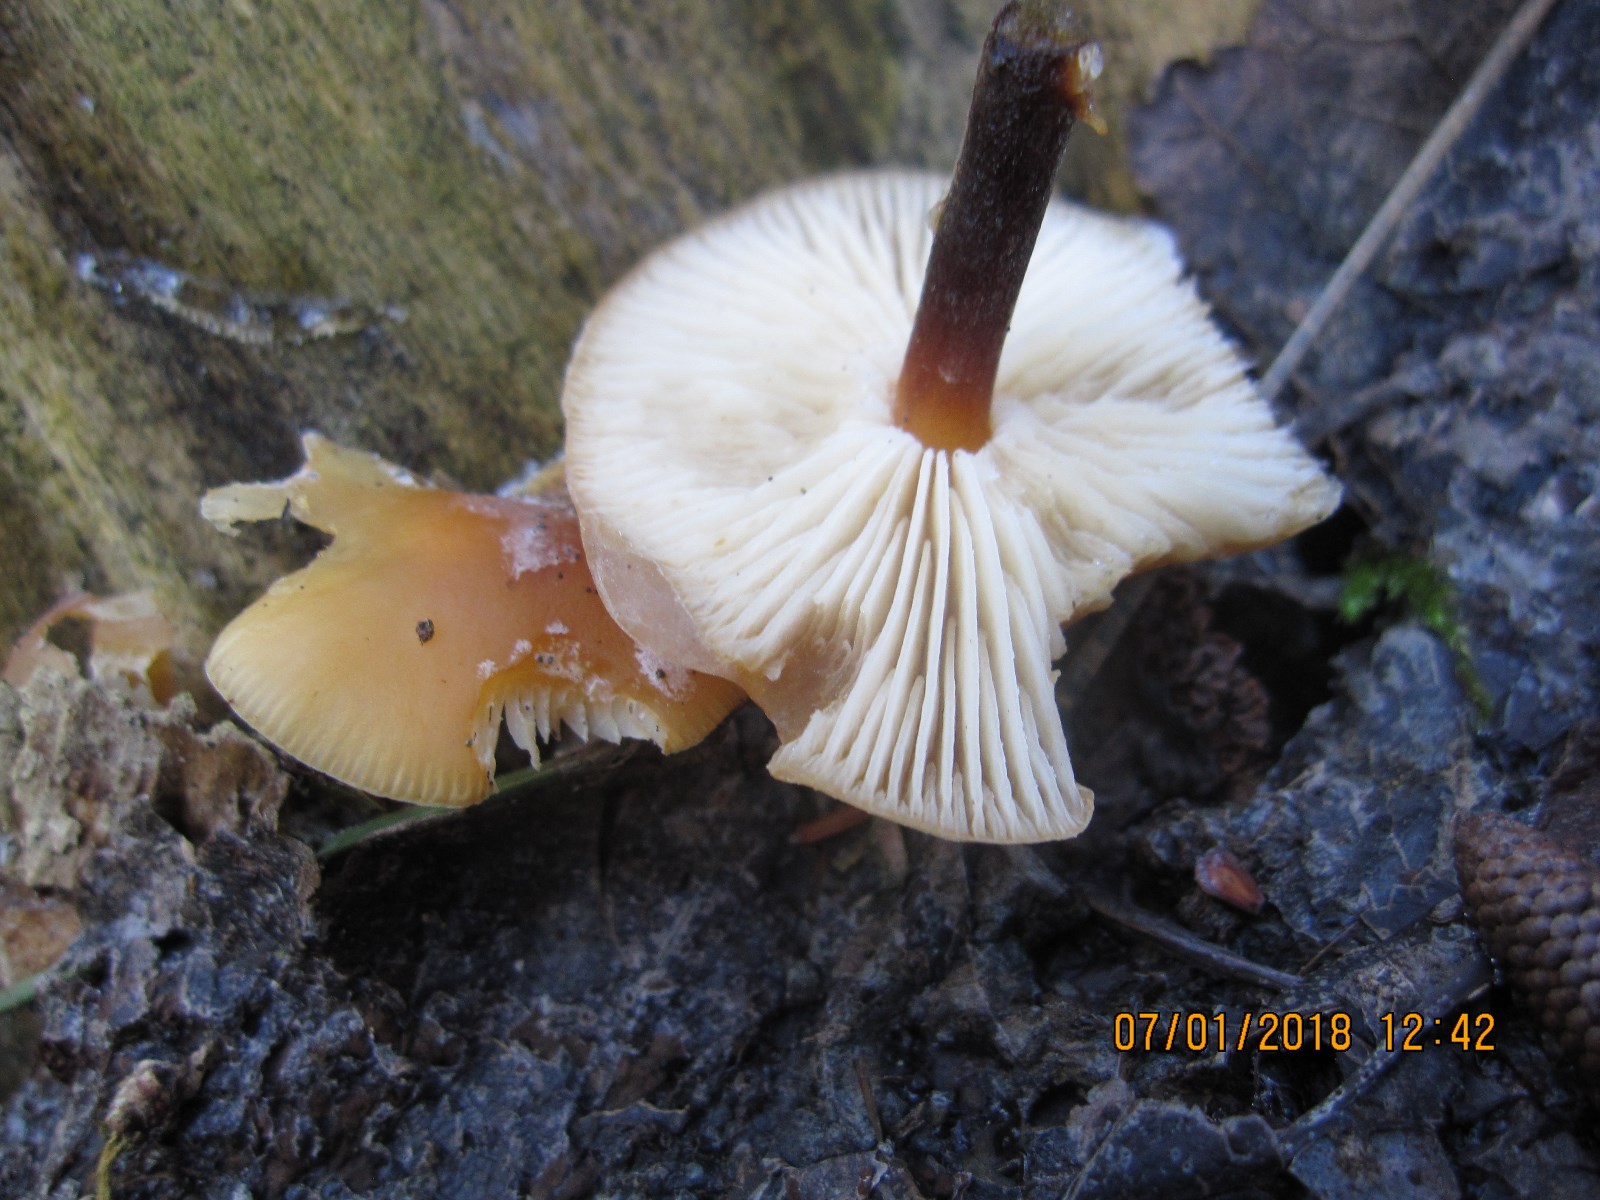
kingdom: Fungi
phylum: Basidiomycota
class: Agaricomycetes
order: Agaricales
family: Physalacriaceae
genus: Flammulina
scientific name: Flammulina velutipes
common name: gul fløjlsfod
